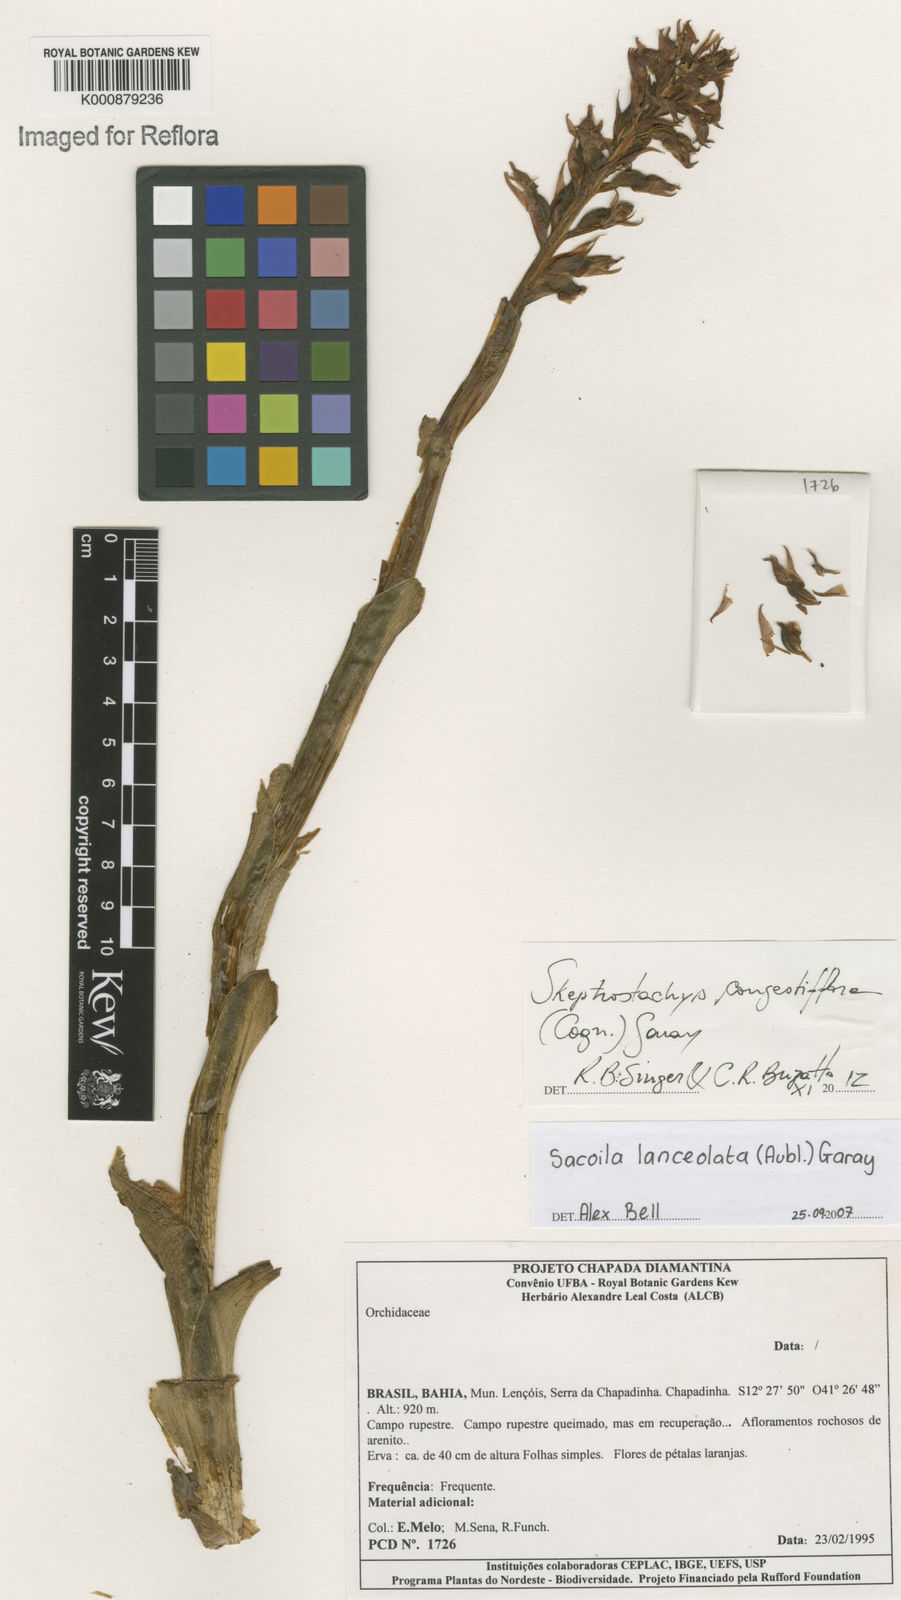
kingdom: Plantae
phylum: Tracheophyta
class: Liliopsida
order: Asparagales
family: Orchidaceae
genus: Skeptrostachys
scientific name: Skeptrostachys congestiflora
